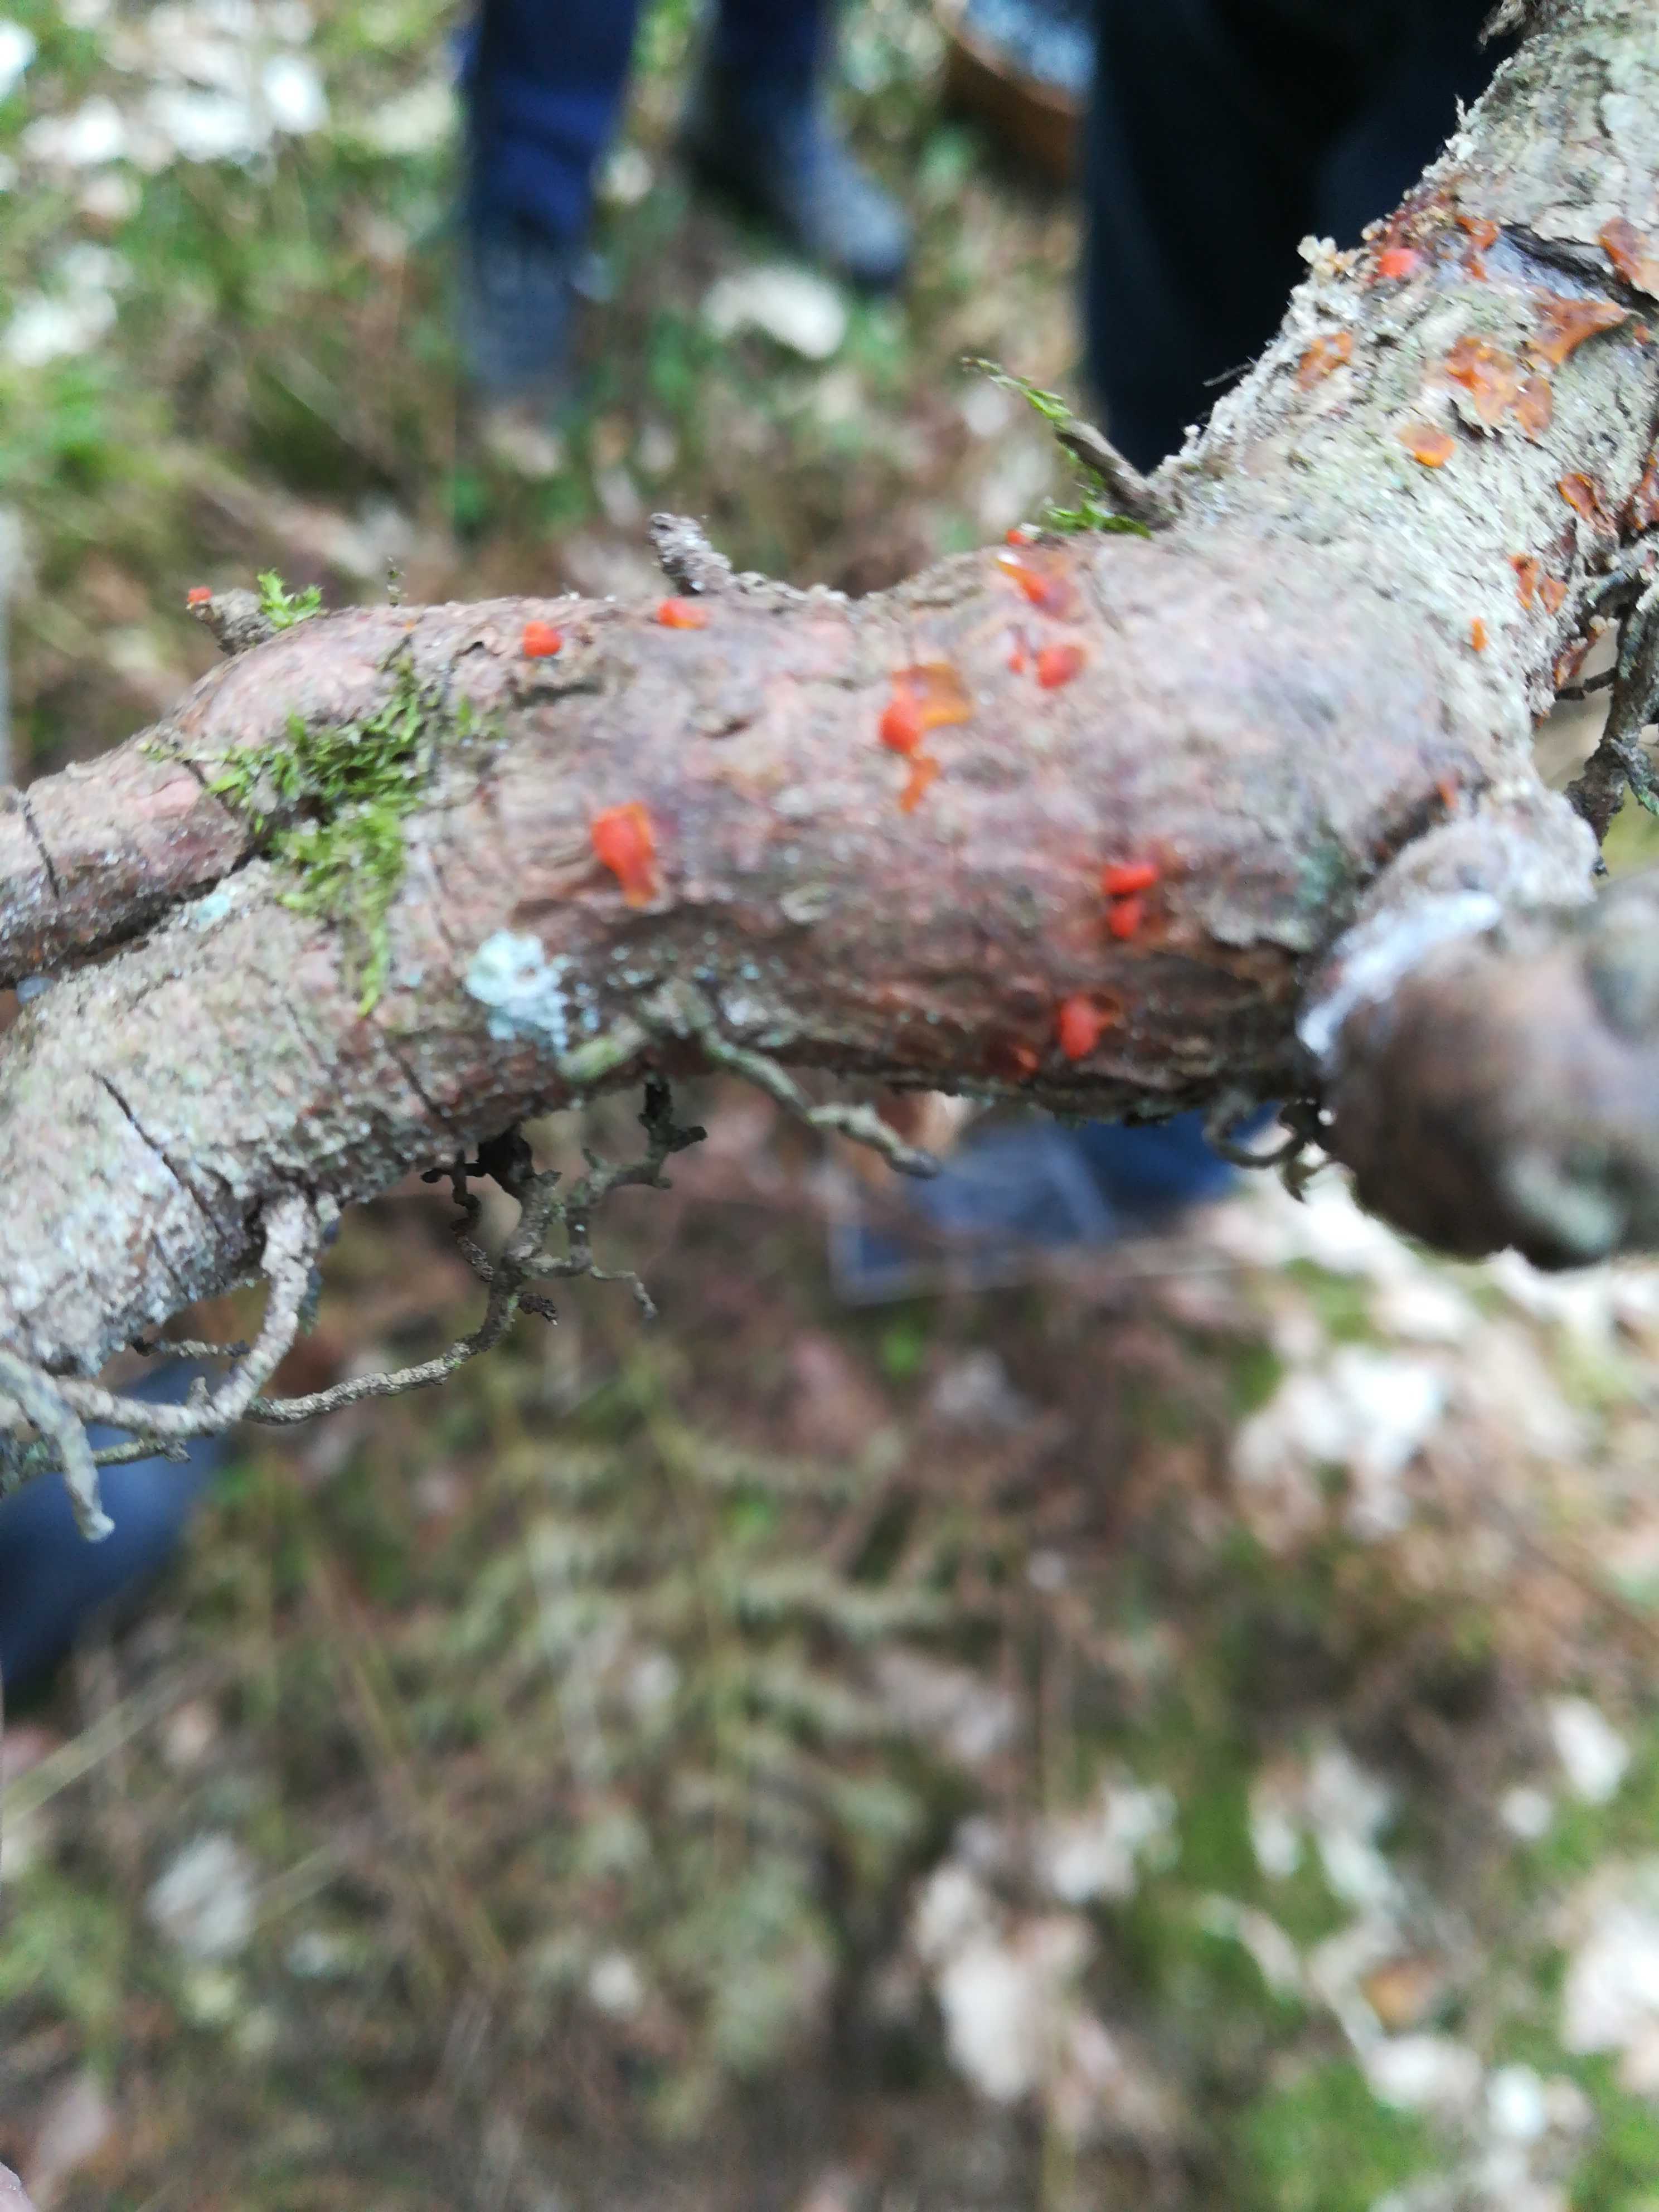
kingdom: Fungi
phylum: Basidiomycota
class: Dacrymycetes
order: Dacrymycetales
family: Dacrymycetaceae
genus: Dacrymyces
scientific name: Dacrymyces stillatus
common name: almindelig tåresvamp
